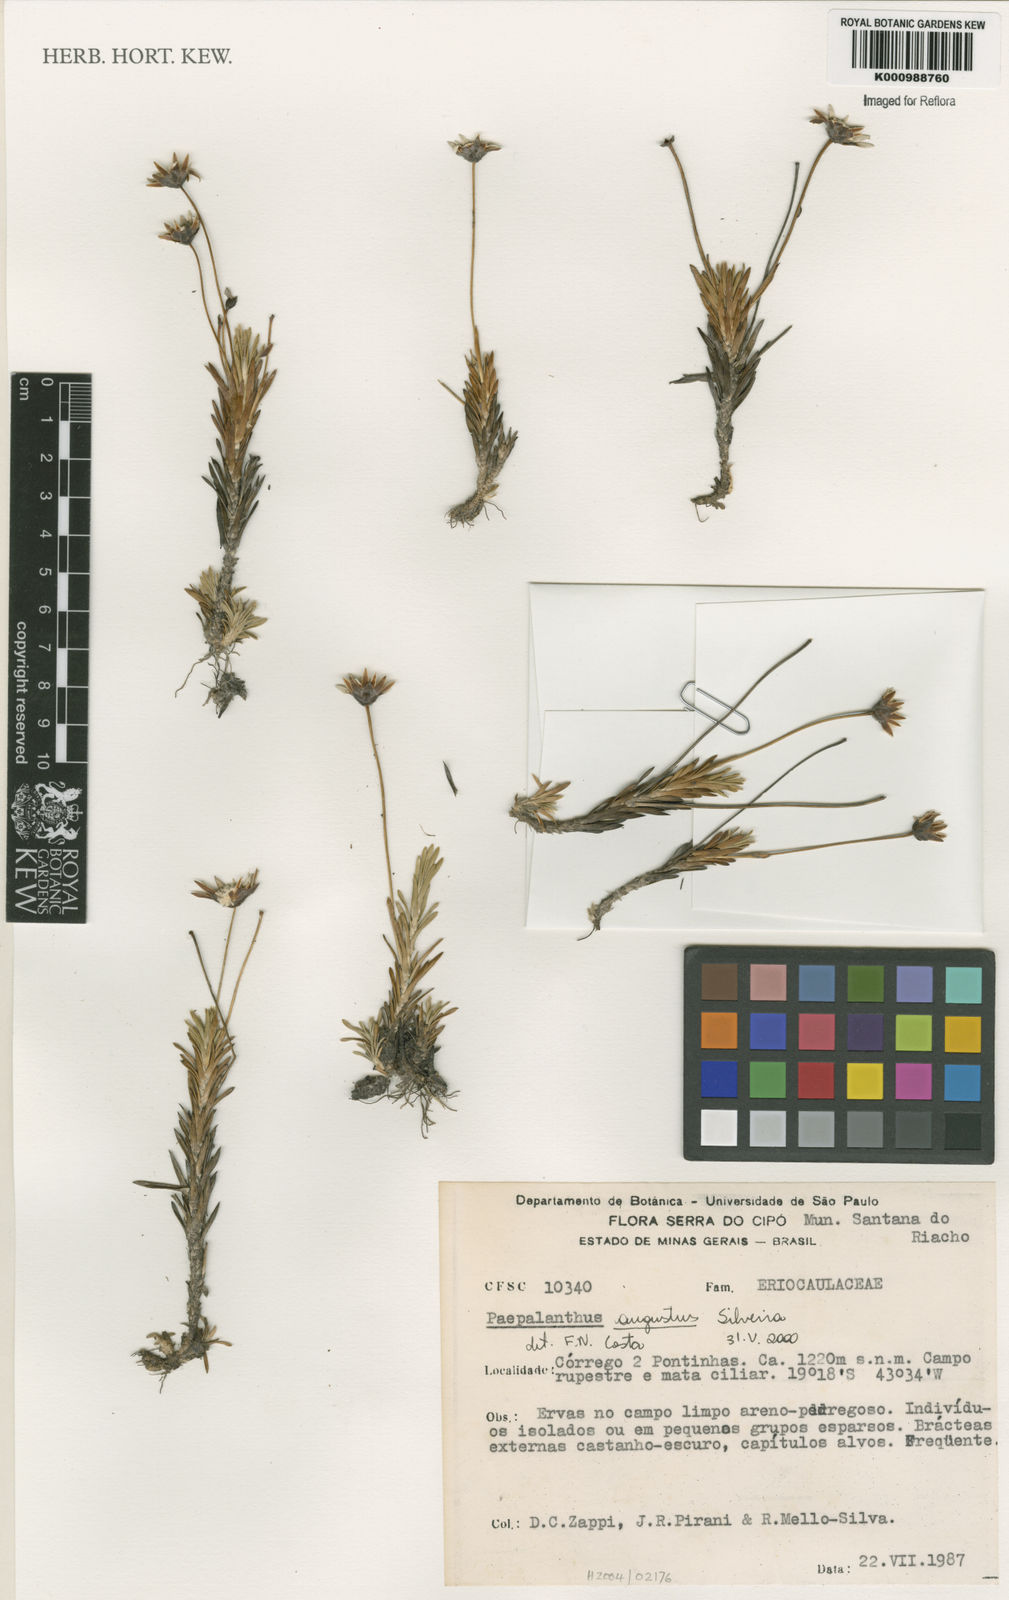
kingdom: Plantae
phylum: Tracheophyta
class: Liliopsida
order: Poales
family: Eriocaulaceae
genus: Paepalanthus
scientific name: Paepalanthus augustus
